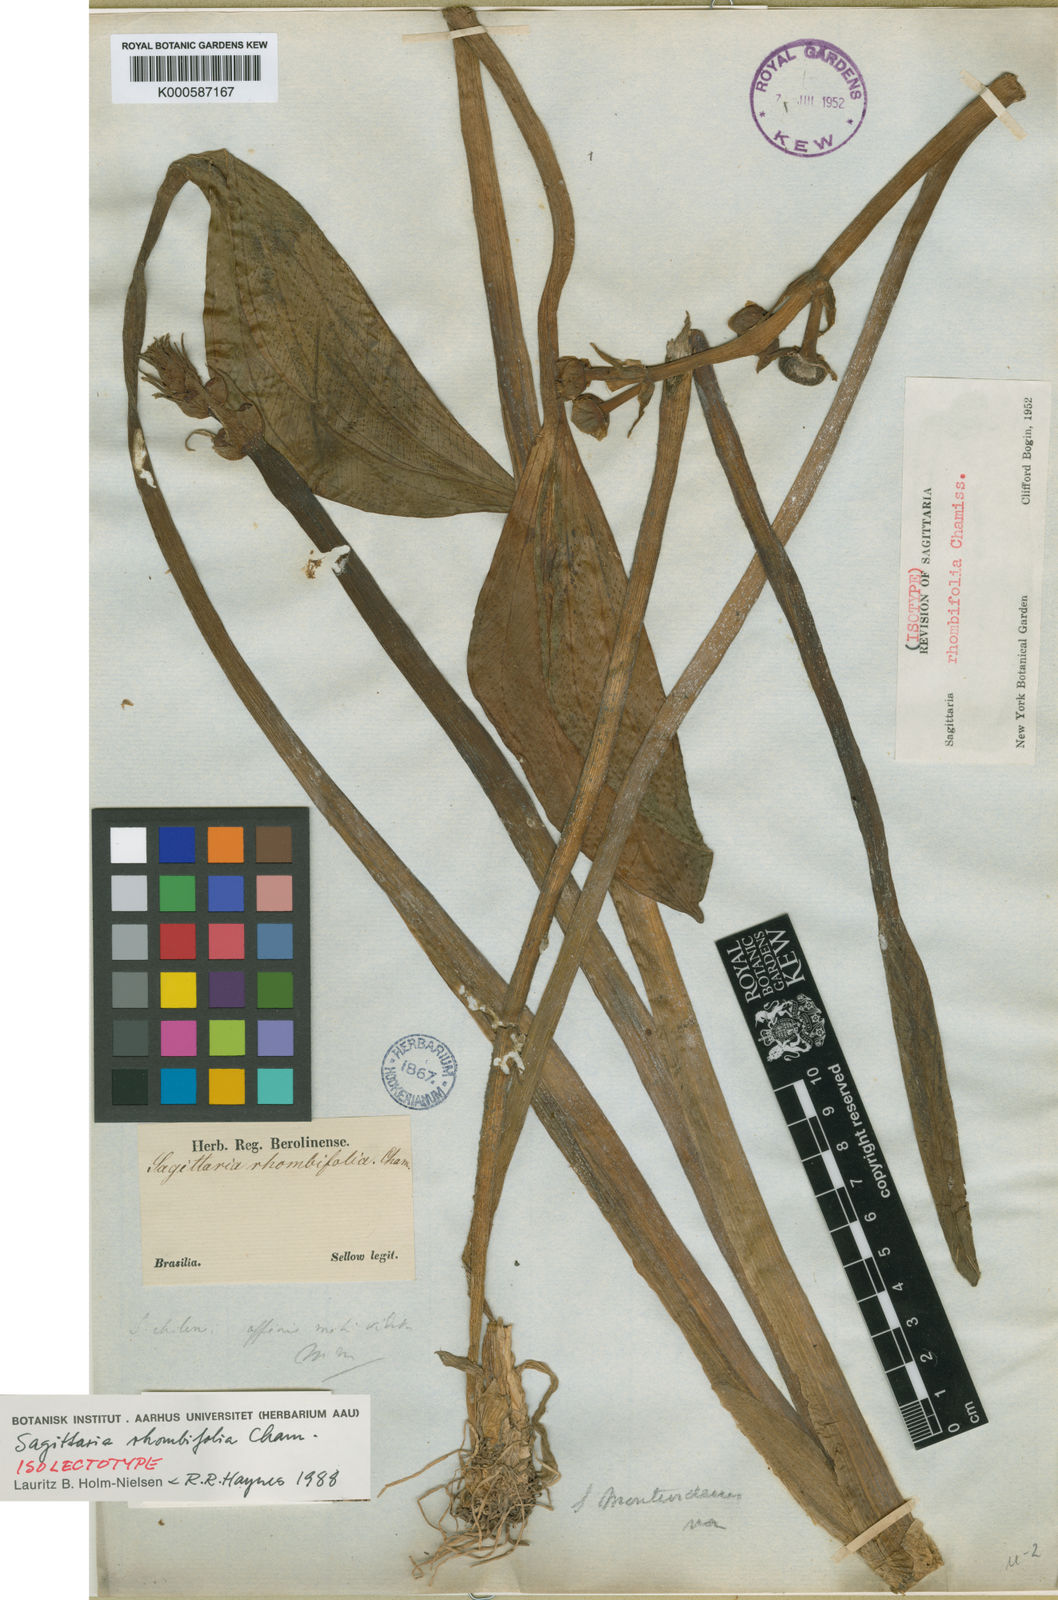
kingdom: Plantae
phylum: Tracheophyta
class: Liliopsida
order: Alismatales
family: Alismataceae
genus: Sagittaria
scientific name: Sagittaria rhombifolia
